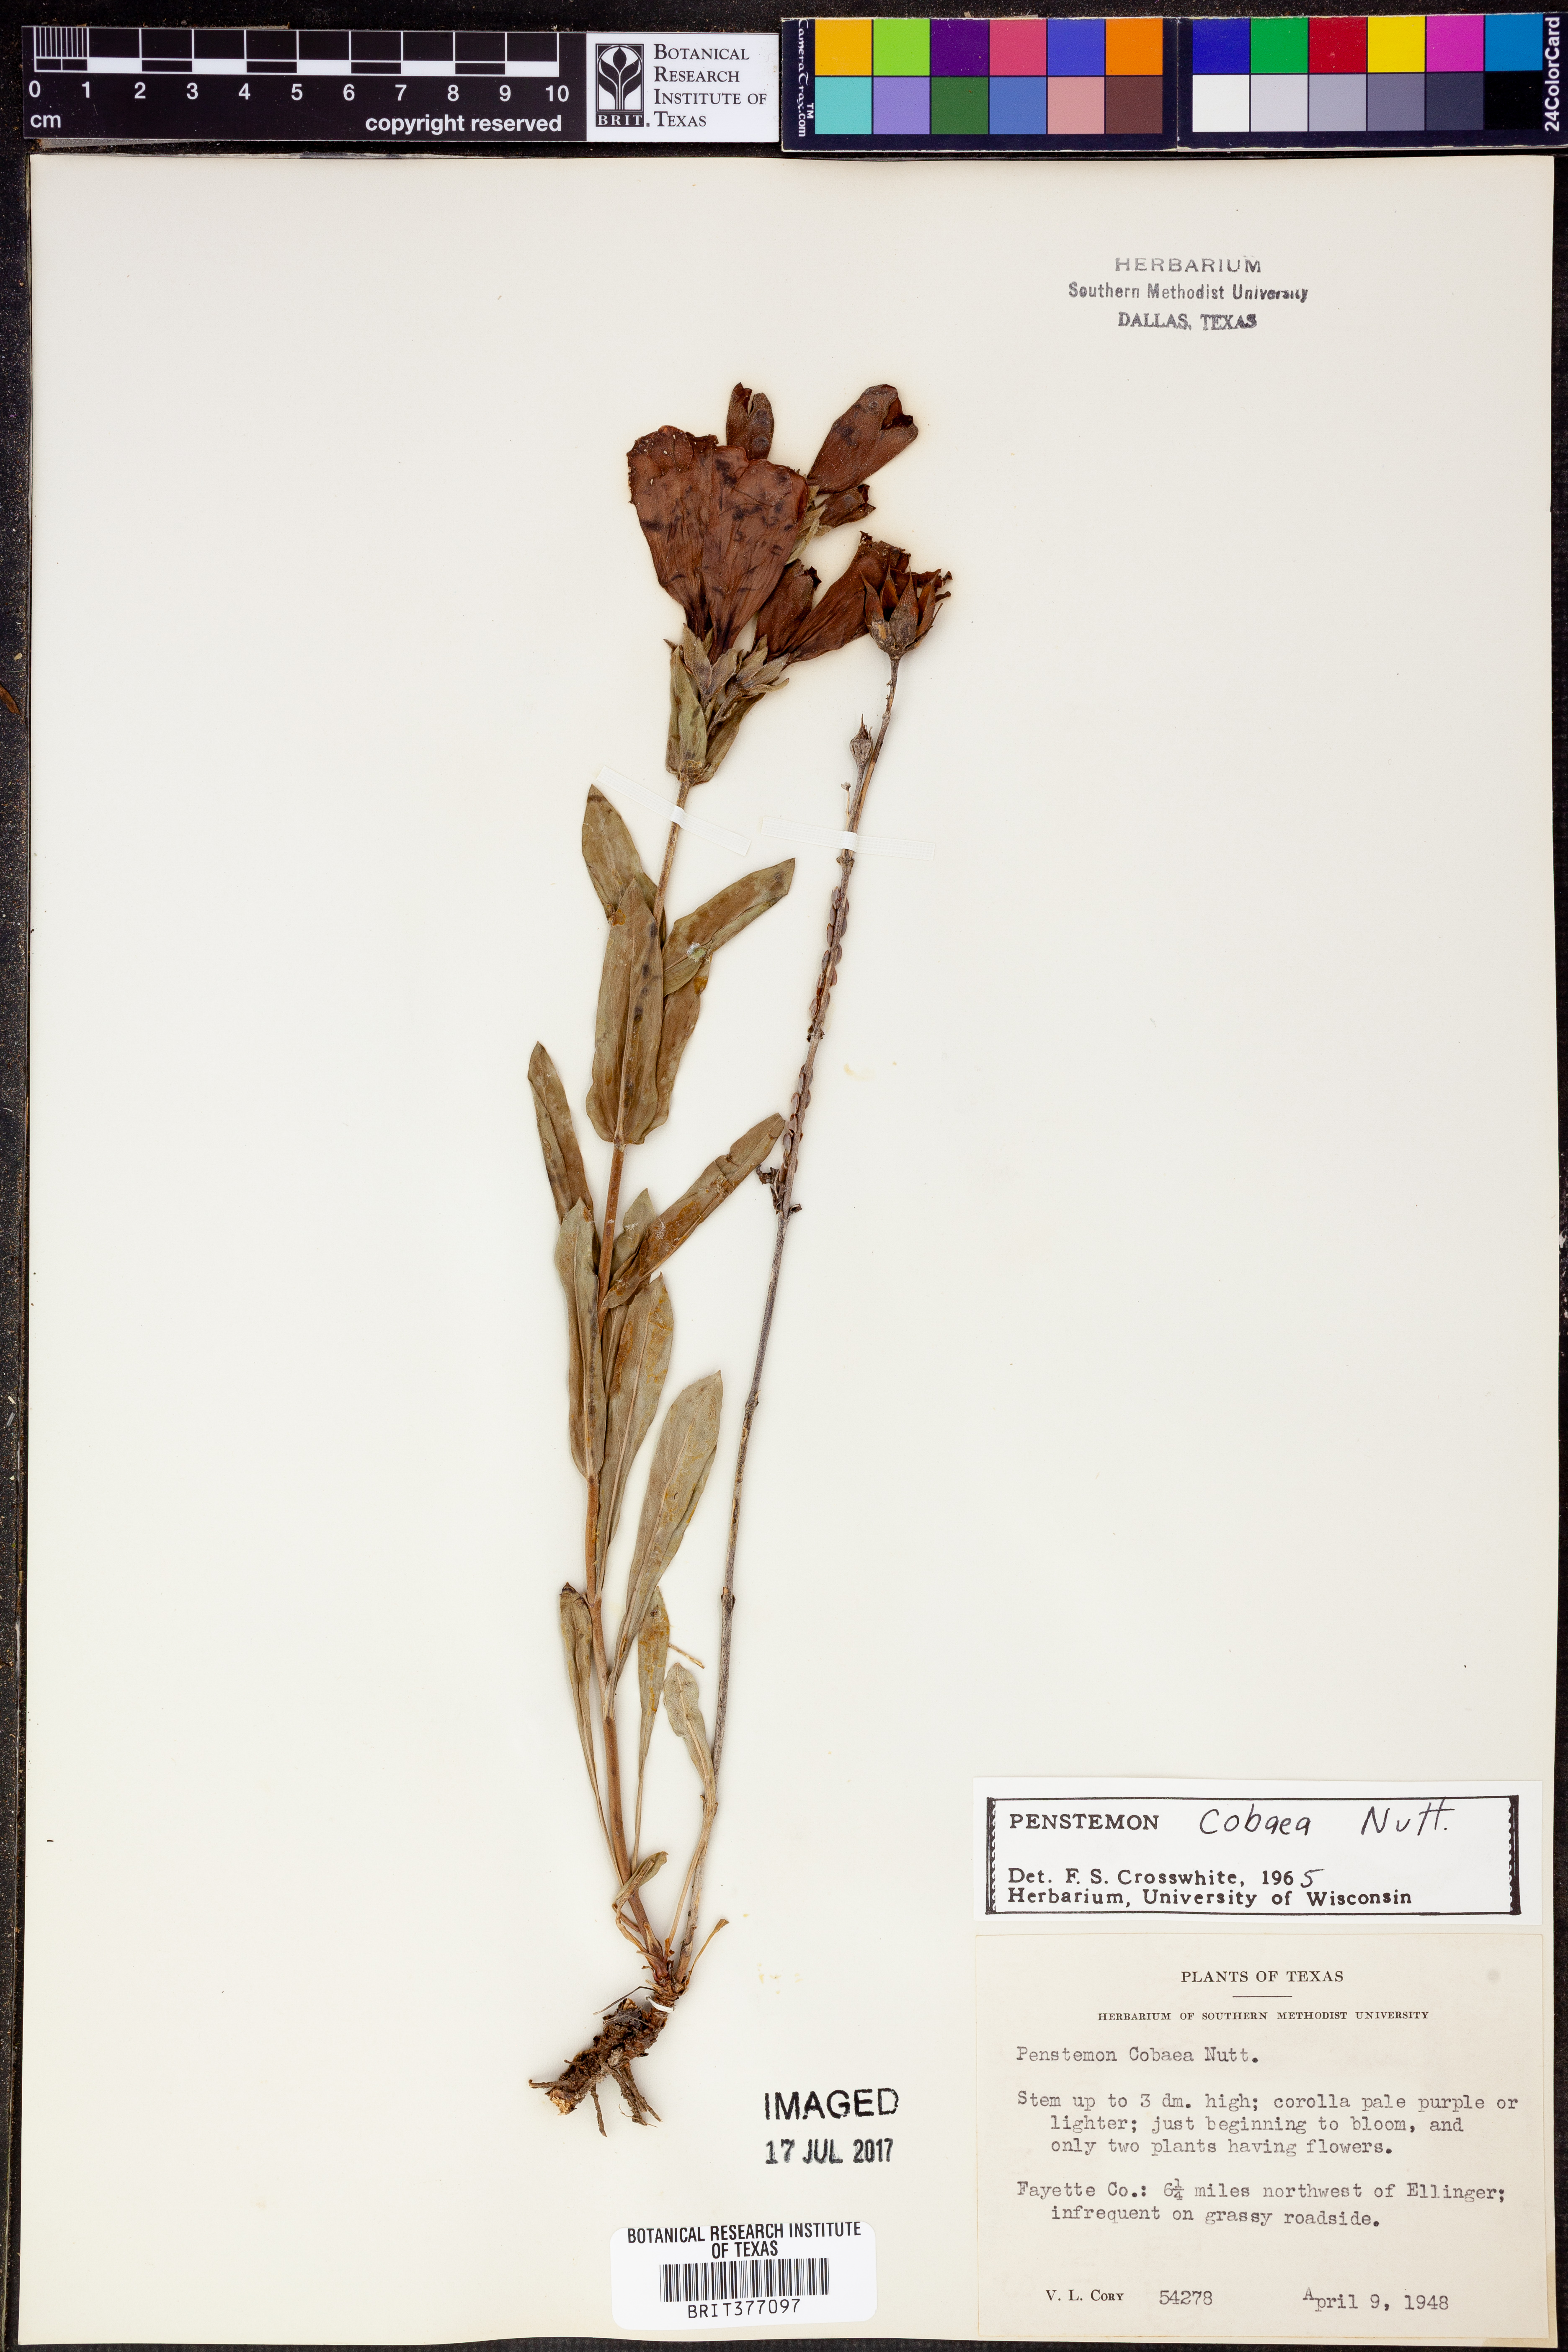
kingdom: Plantae
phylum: Tracheophyta
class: Magnoliopsida
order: Lamiales
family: Plantaginaceae
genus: Penstemon
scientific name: Penstemon cobaea
